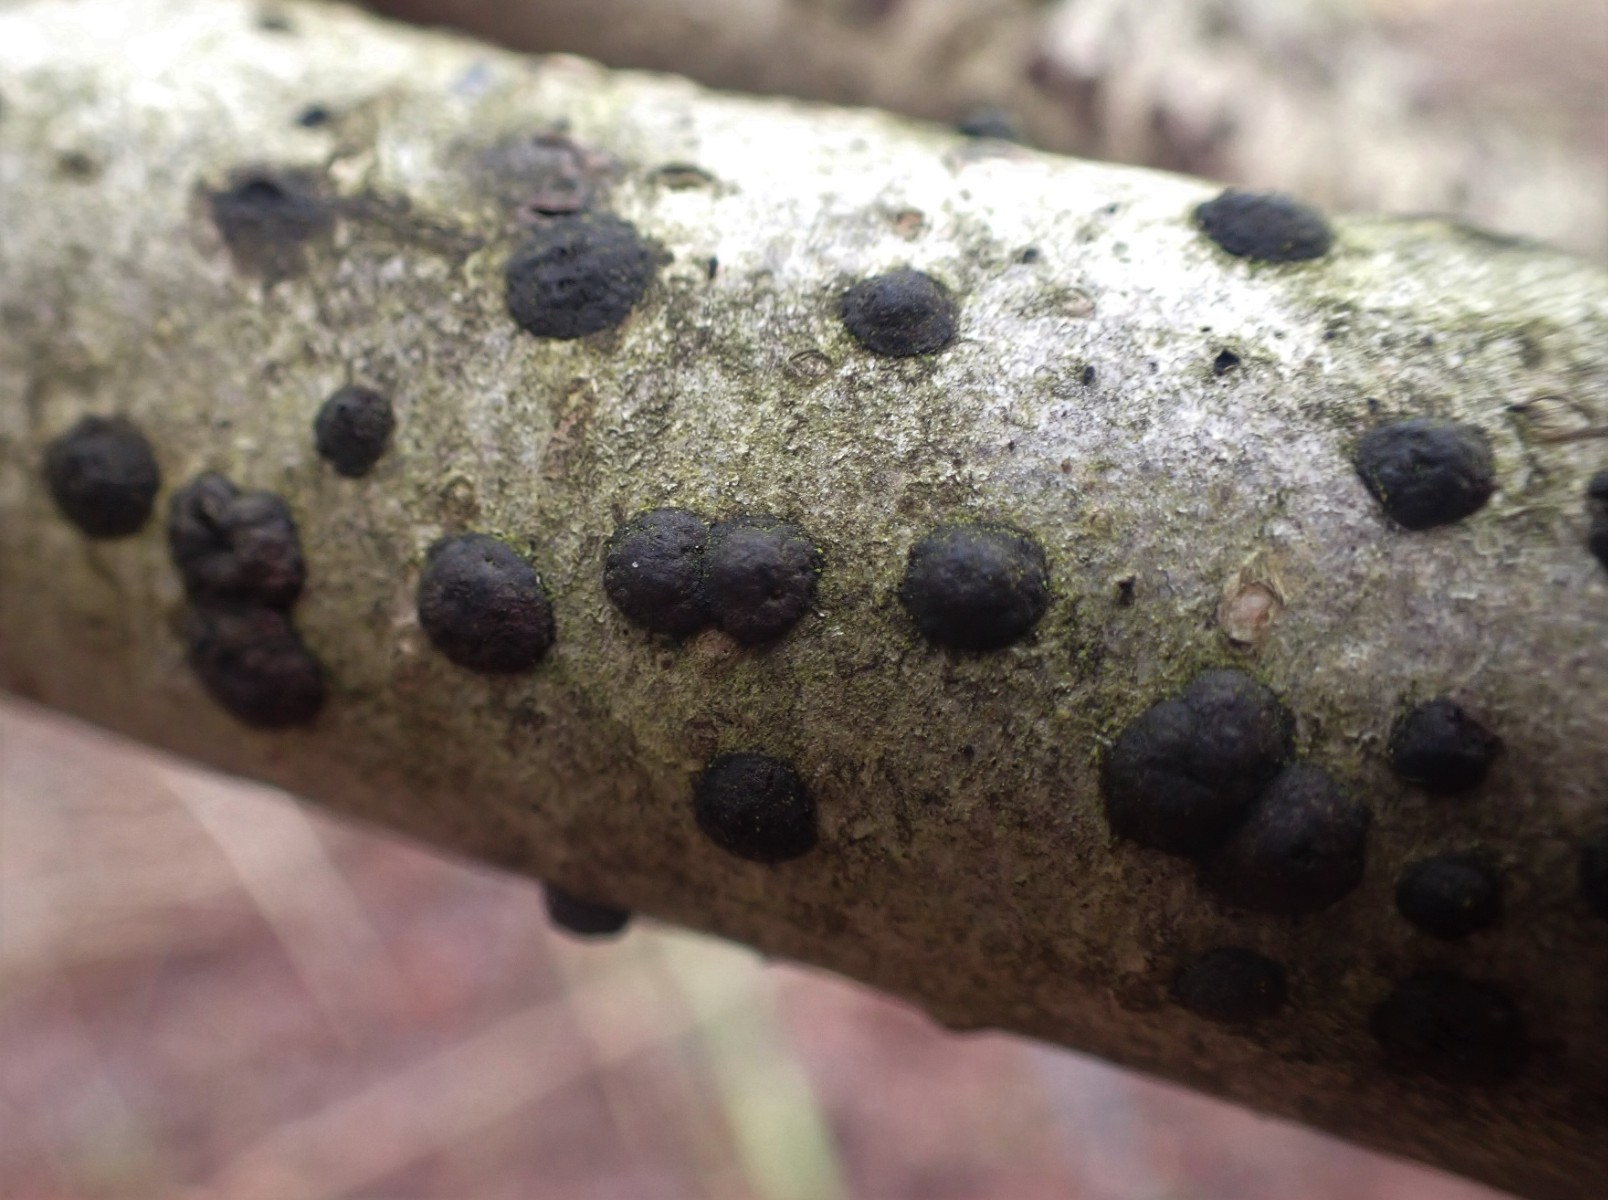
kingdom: Fungi
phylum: Ascomycota
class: Sordariomycetes
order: Xylariales
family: Hypoxylaceae
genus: Hypoxylon
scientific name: Hypoxylon fuscum
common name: kegleformet kulbær
